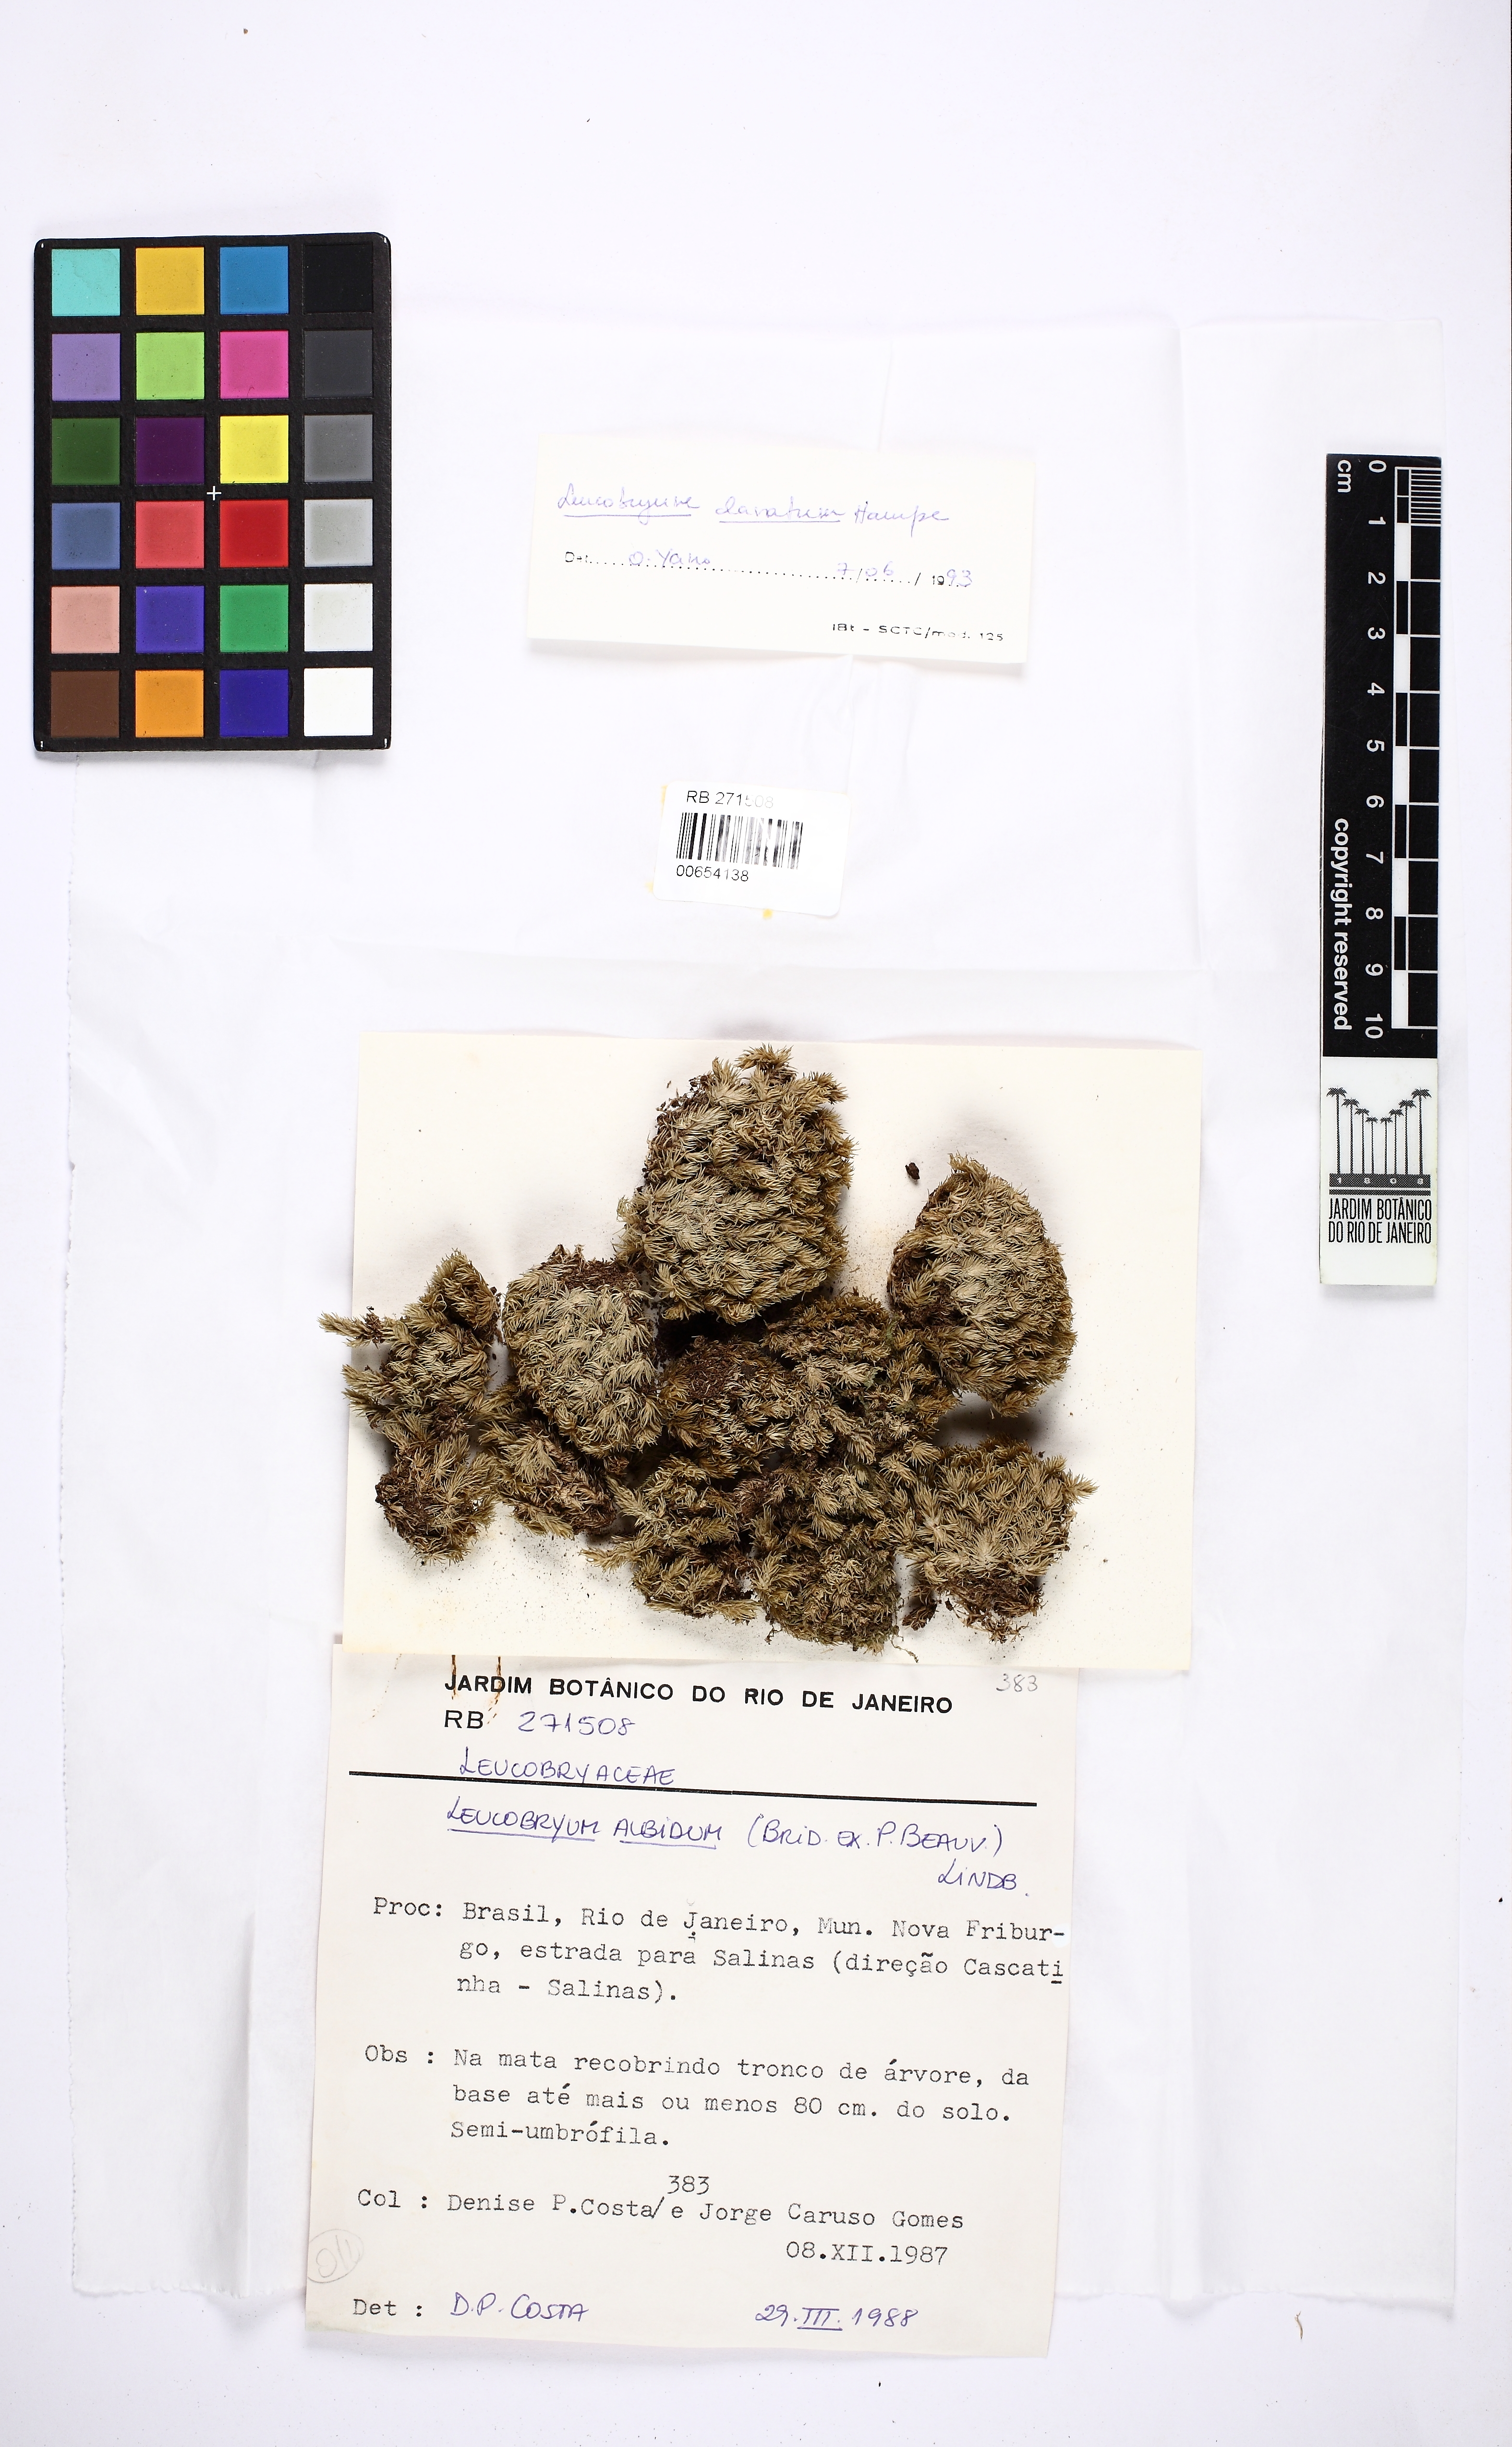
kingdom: Plantae
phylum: Bryophyta
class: Bryopsida
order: Dicranales
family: Leucobryaceae
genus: Leucobryum
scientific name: Leucobryum clavatum
